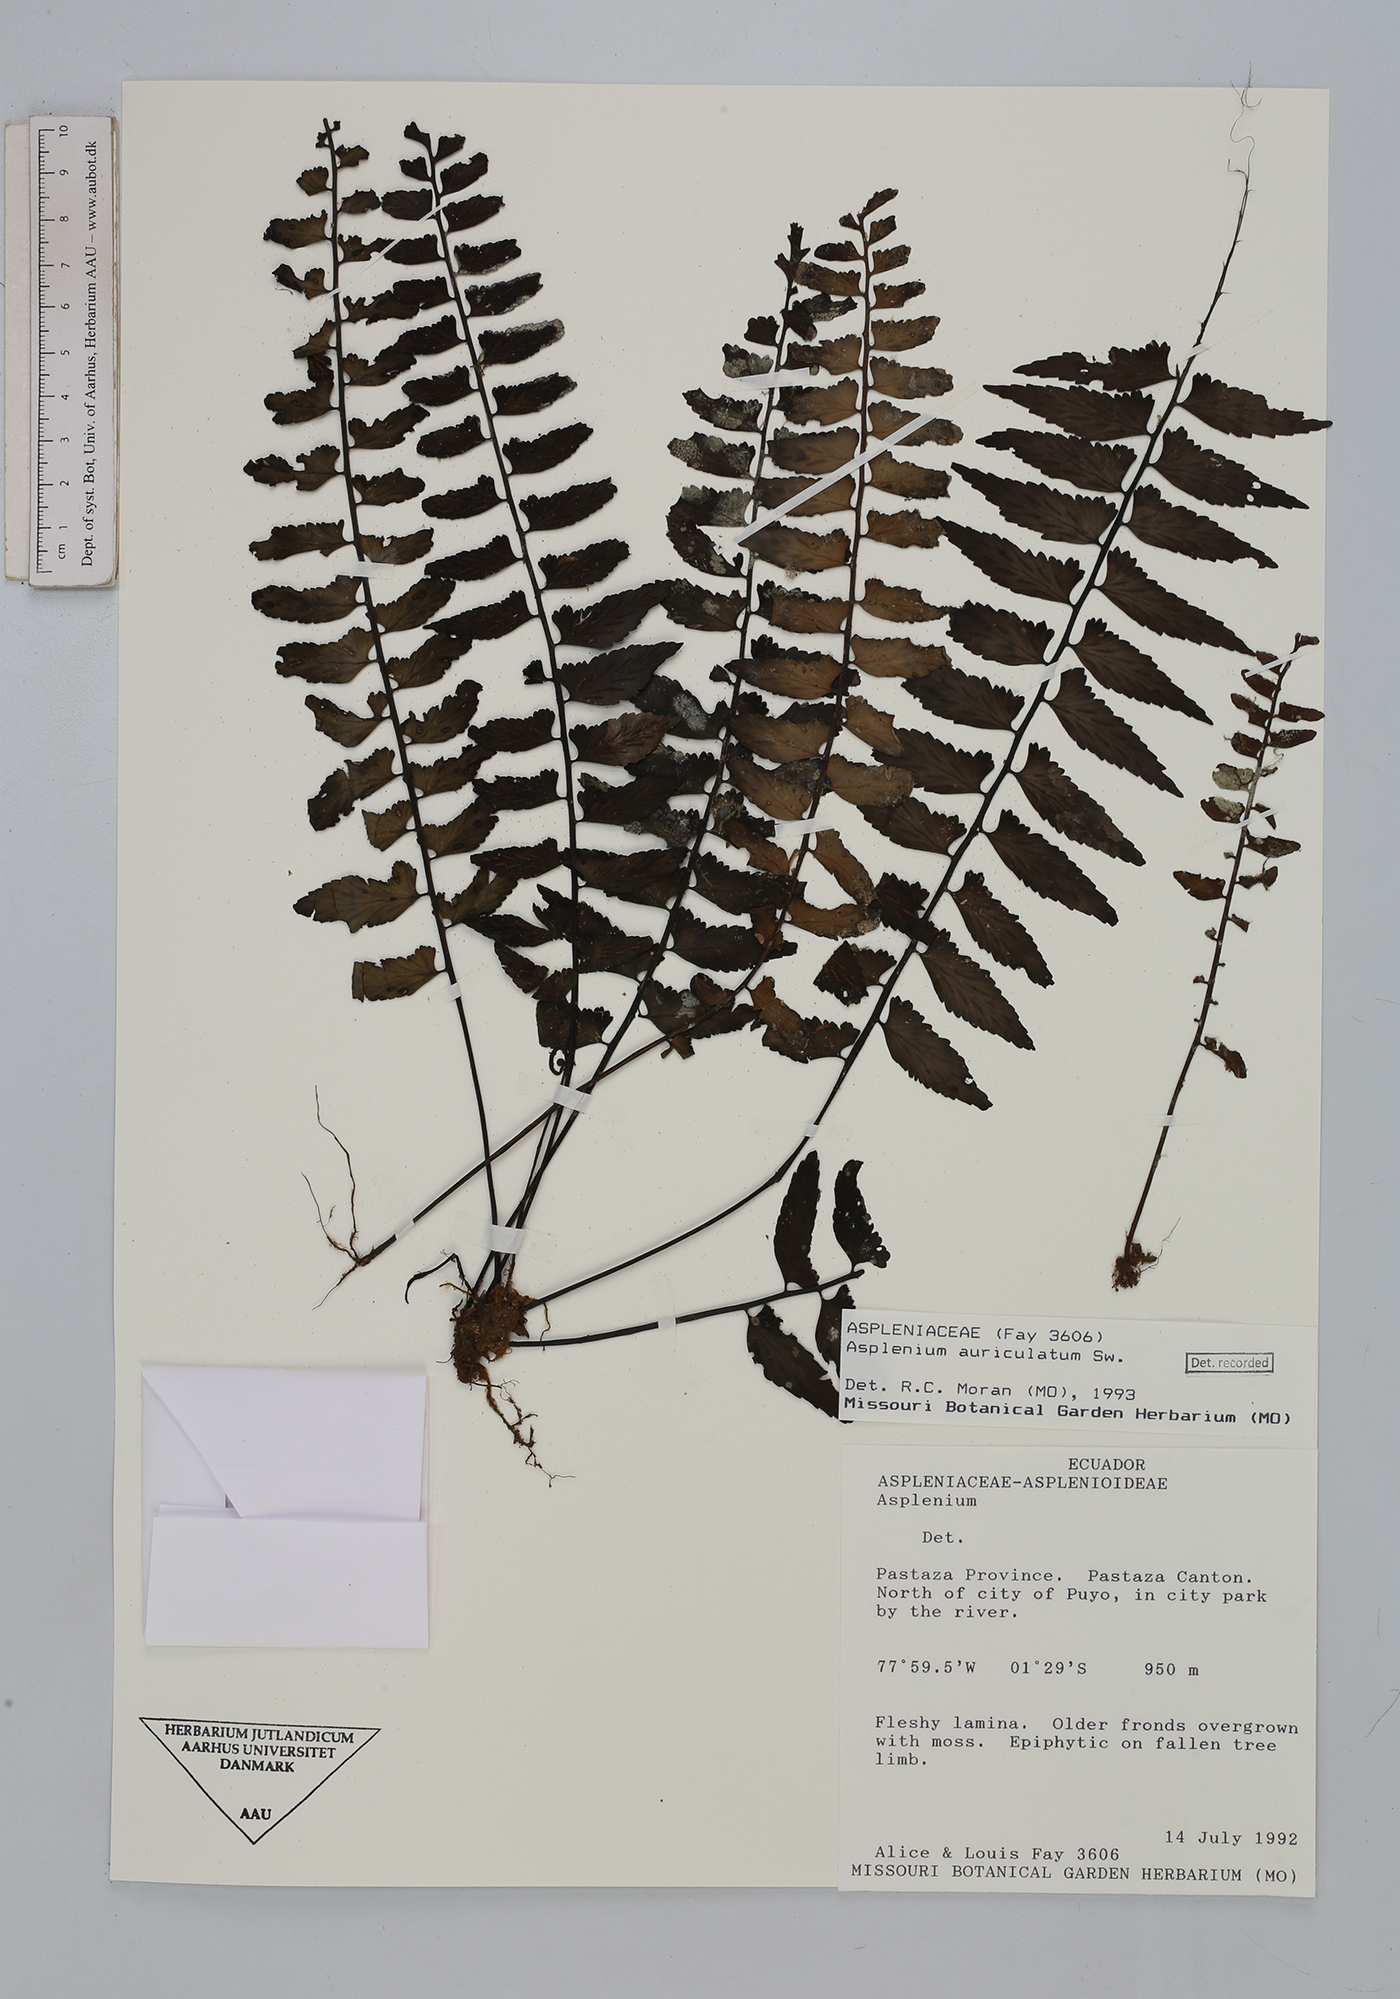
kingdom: Plantae
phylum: Tracheophyta
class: Polypodiopsida
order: Polypodiales
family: Aspleniaceae
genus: Asplenium
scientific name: Asplenium auriculatum
